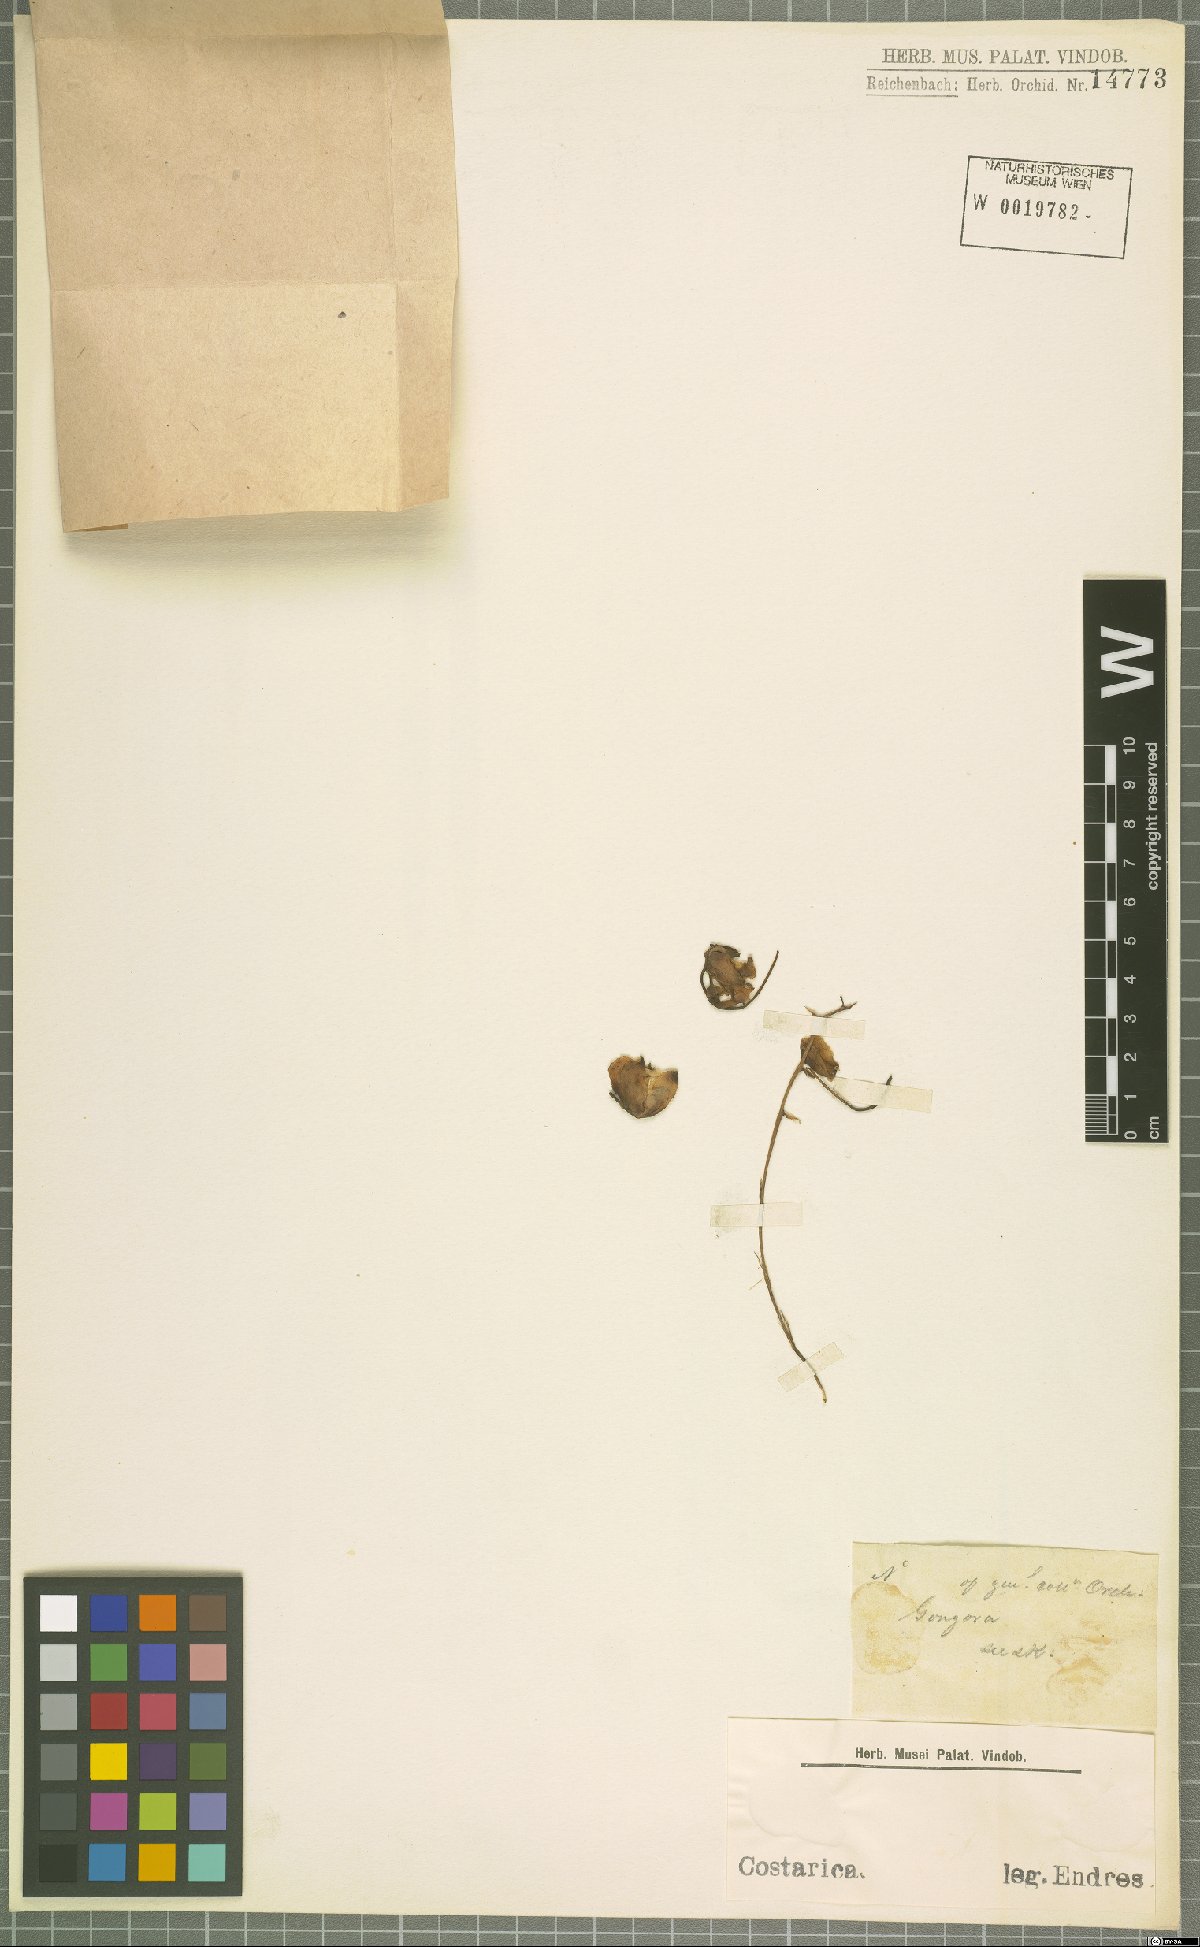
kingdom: Plantae
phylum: Tracheophyta
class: Liliopsida
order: Asparagales
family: Orchidaceae
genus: Gongora
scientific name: Gongora
